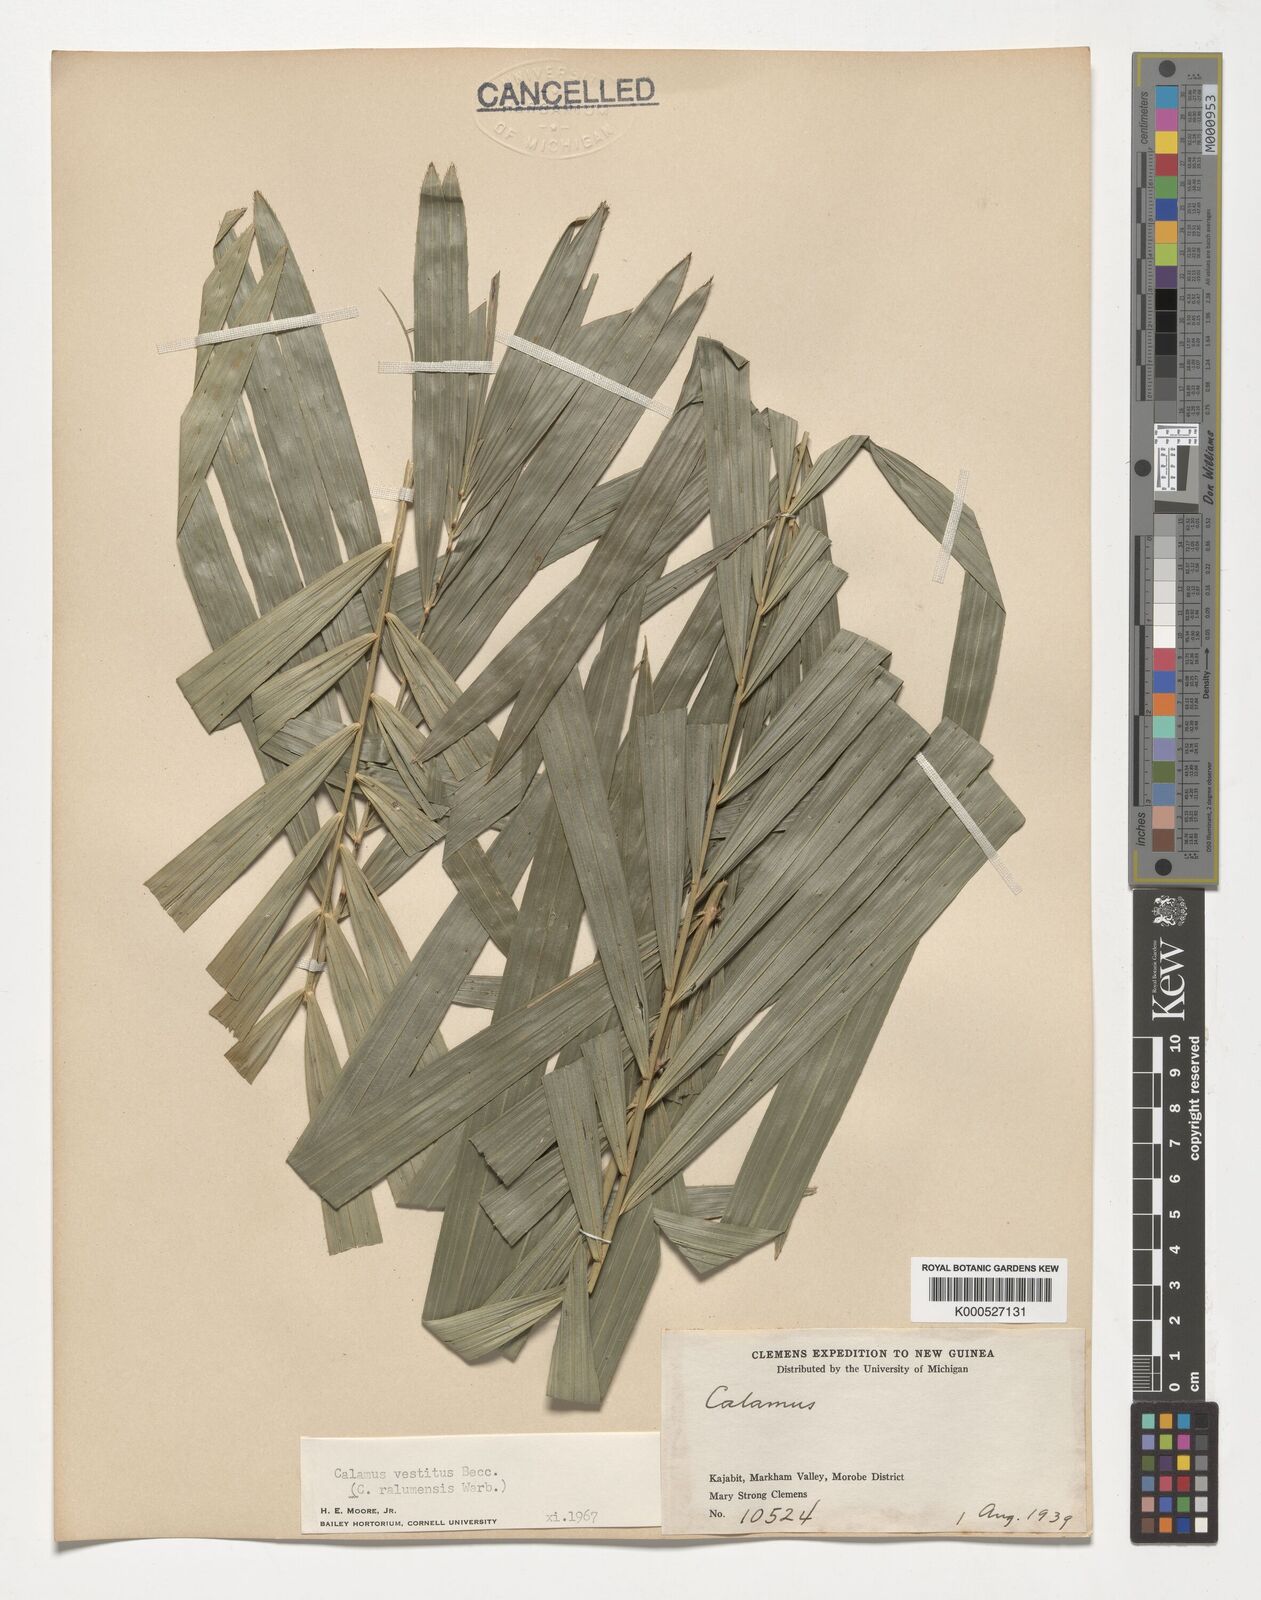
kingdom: Plantae
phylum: Tracheophyta
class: Liliopsida
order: Arecales
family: Arecaceae
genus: Calamus
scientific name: Calamus longipinna
